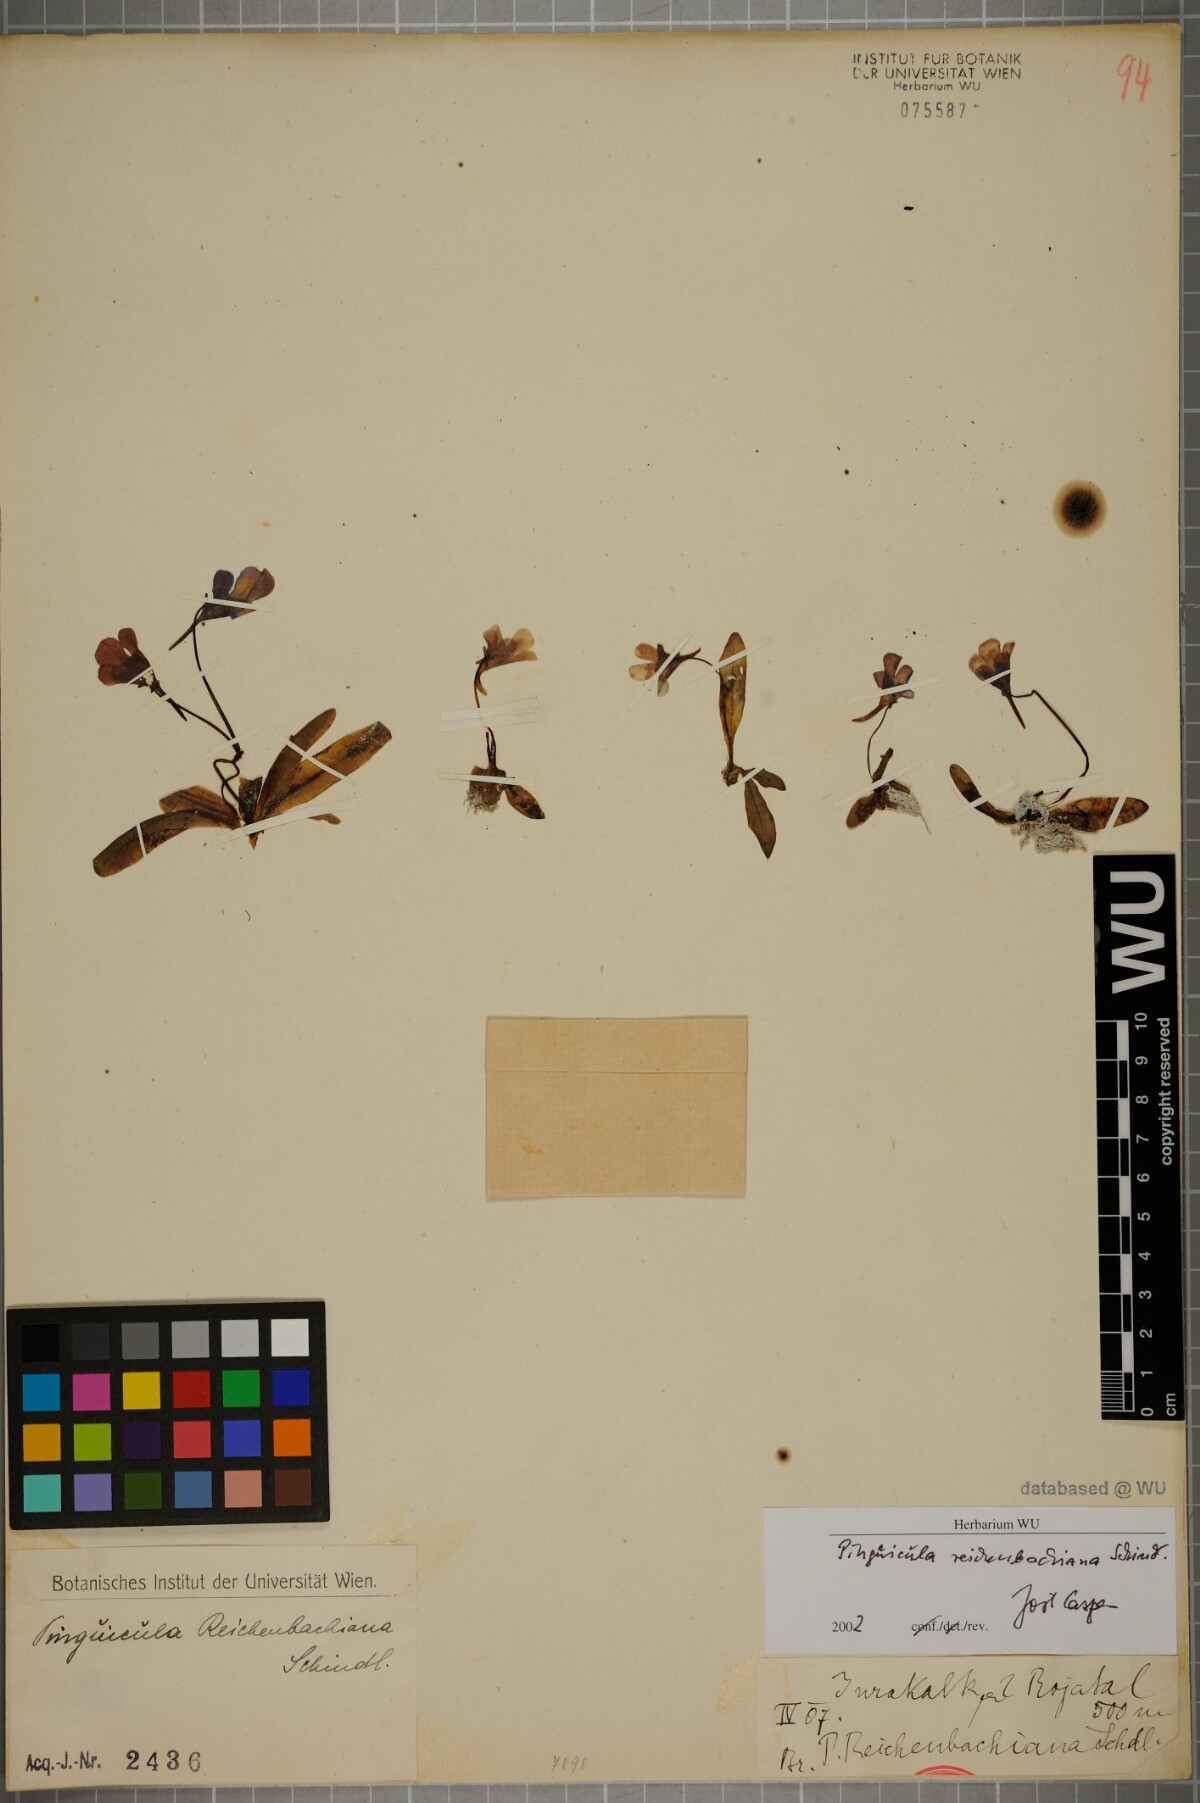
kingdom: Plantae
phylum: Tracheophyta
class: Magnoliopsida
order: Lamiales
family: Lentibulariaceae
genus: Pinguicula
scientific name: Pinguicula longifolia
